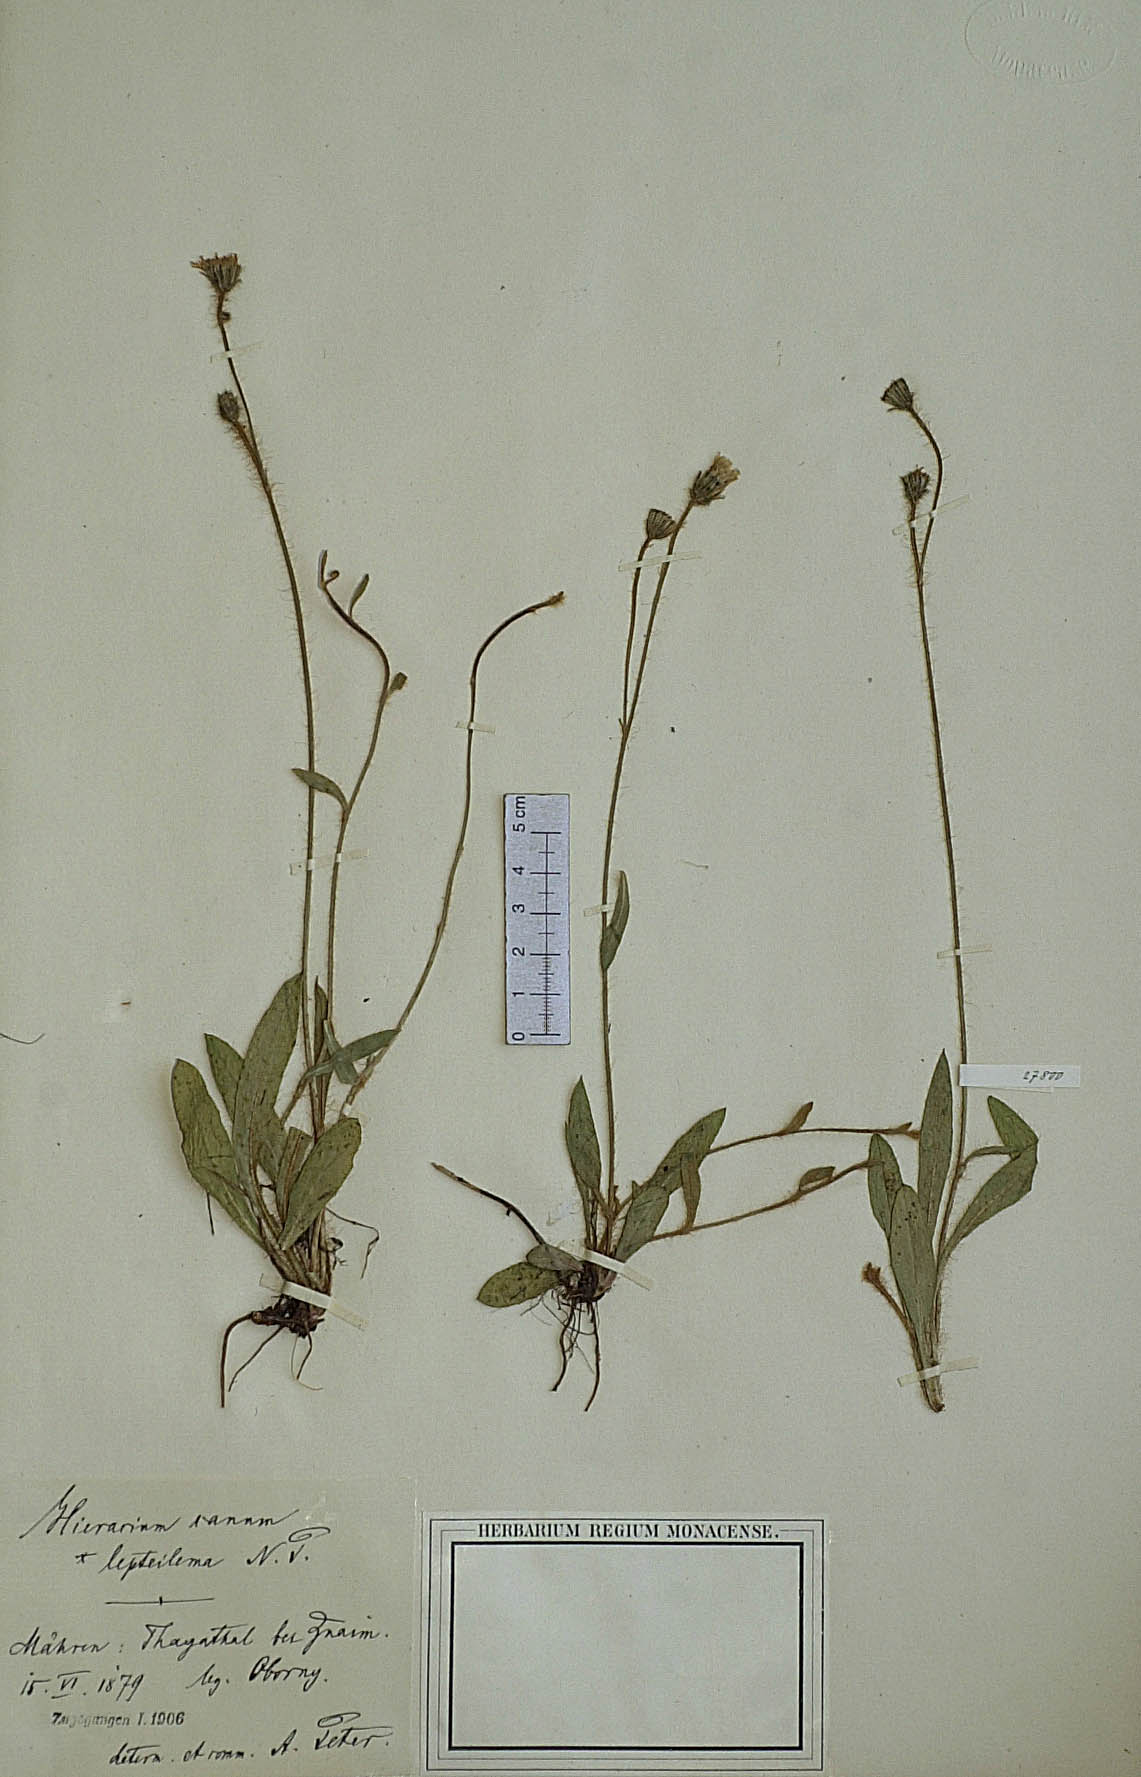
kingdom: Plantae
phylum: Tracheophyta
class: Magnoliopsida
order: Asterales
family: Asteraceae
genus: Pilosella
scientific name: Pilosella acutifolia
